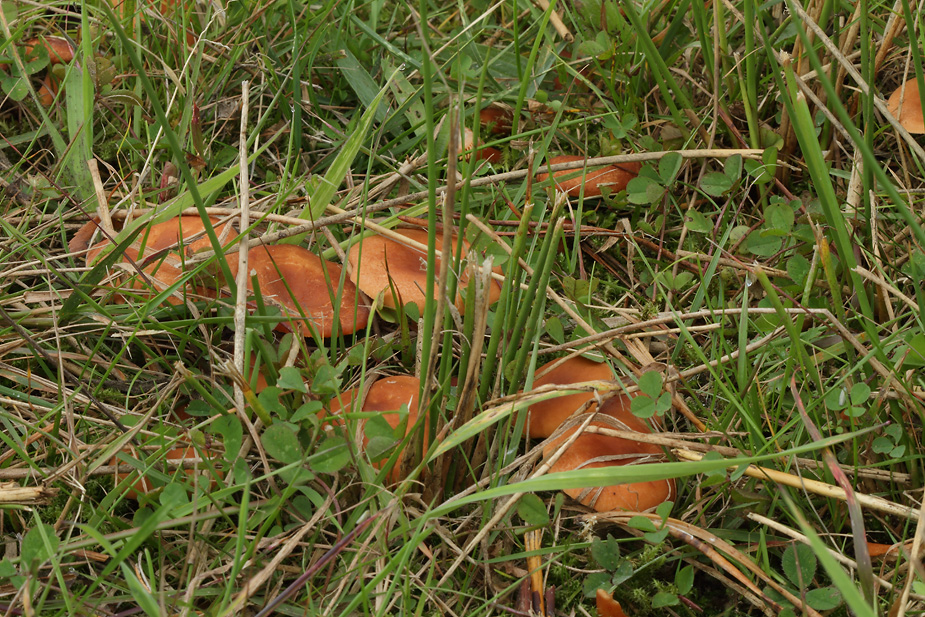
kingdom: Fungi
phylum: Basidiomycota
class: Agaricomycetes
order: Russulales
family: Russulaceae
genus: Lactarius
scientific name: Lactarius lacunarum
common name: sump-mælkehat
